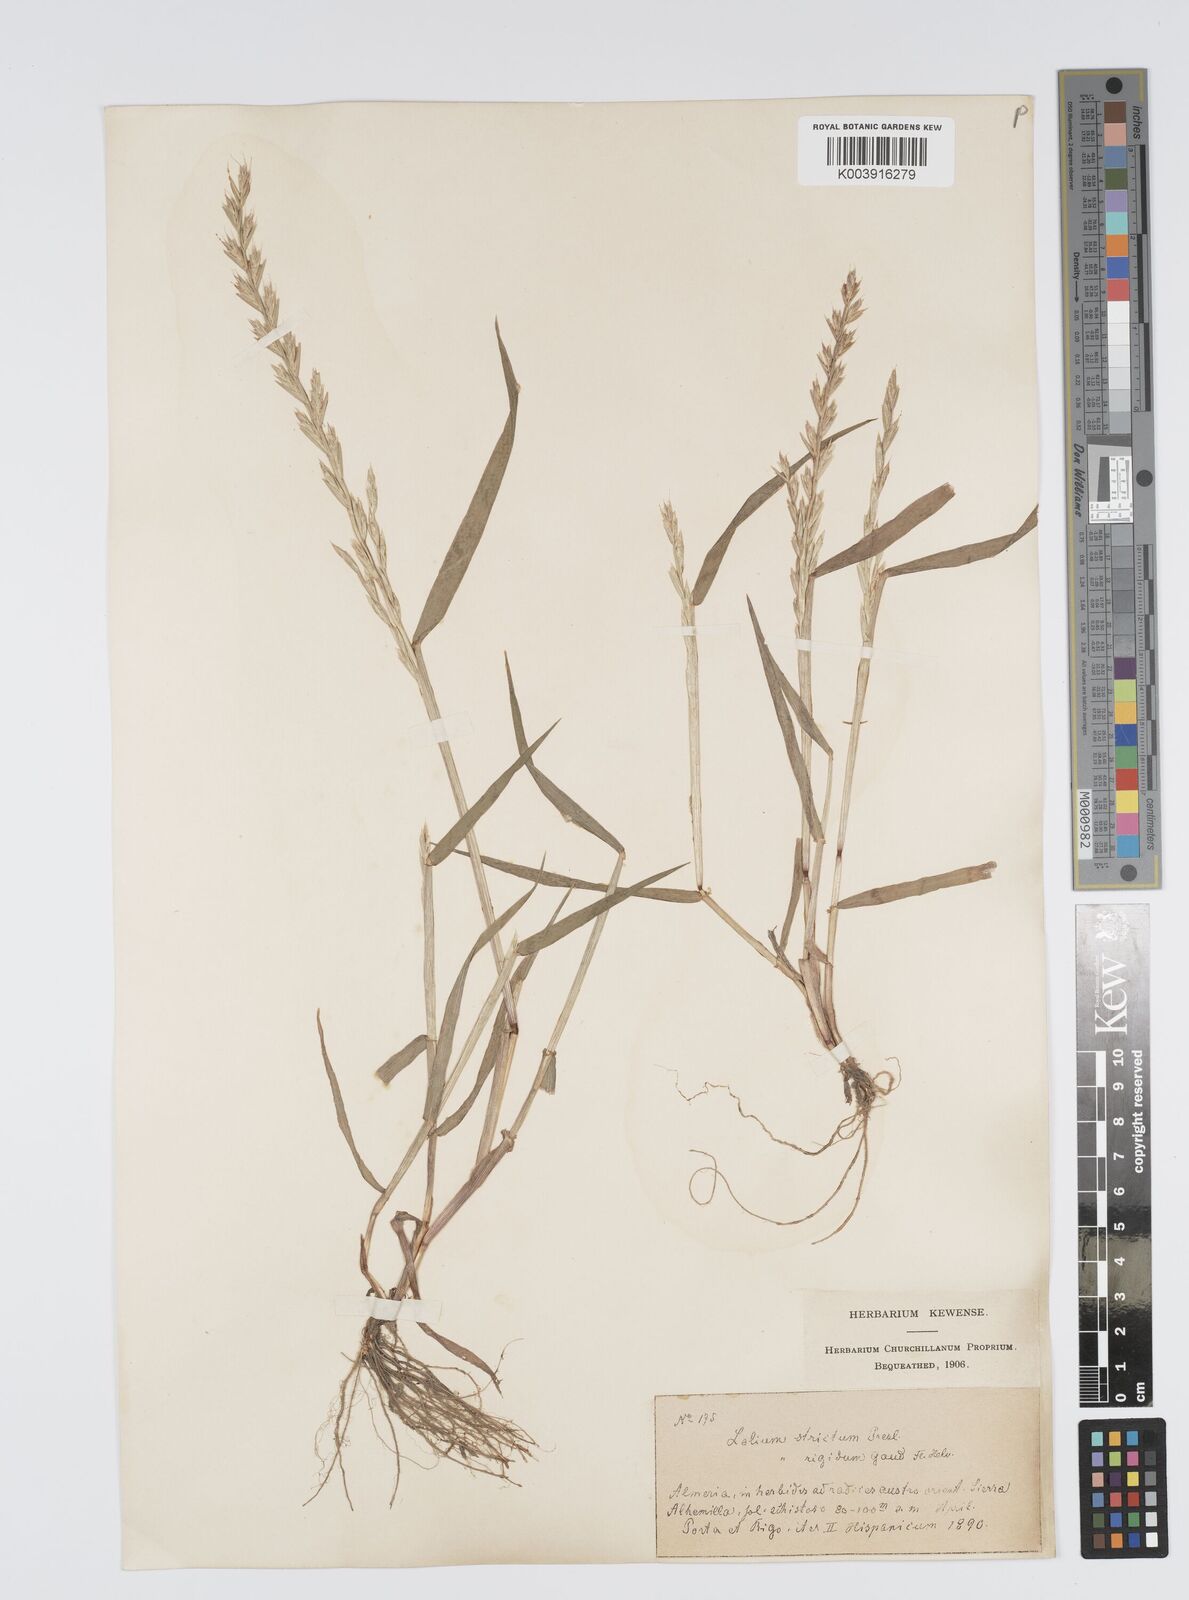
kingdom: Plantae
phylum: Tracheophyta
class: Liliopsida
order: Poales
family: Poaceae
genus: Lolium
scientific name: Lolium rigidum
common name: Wimmera ryegrass
